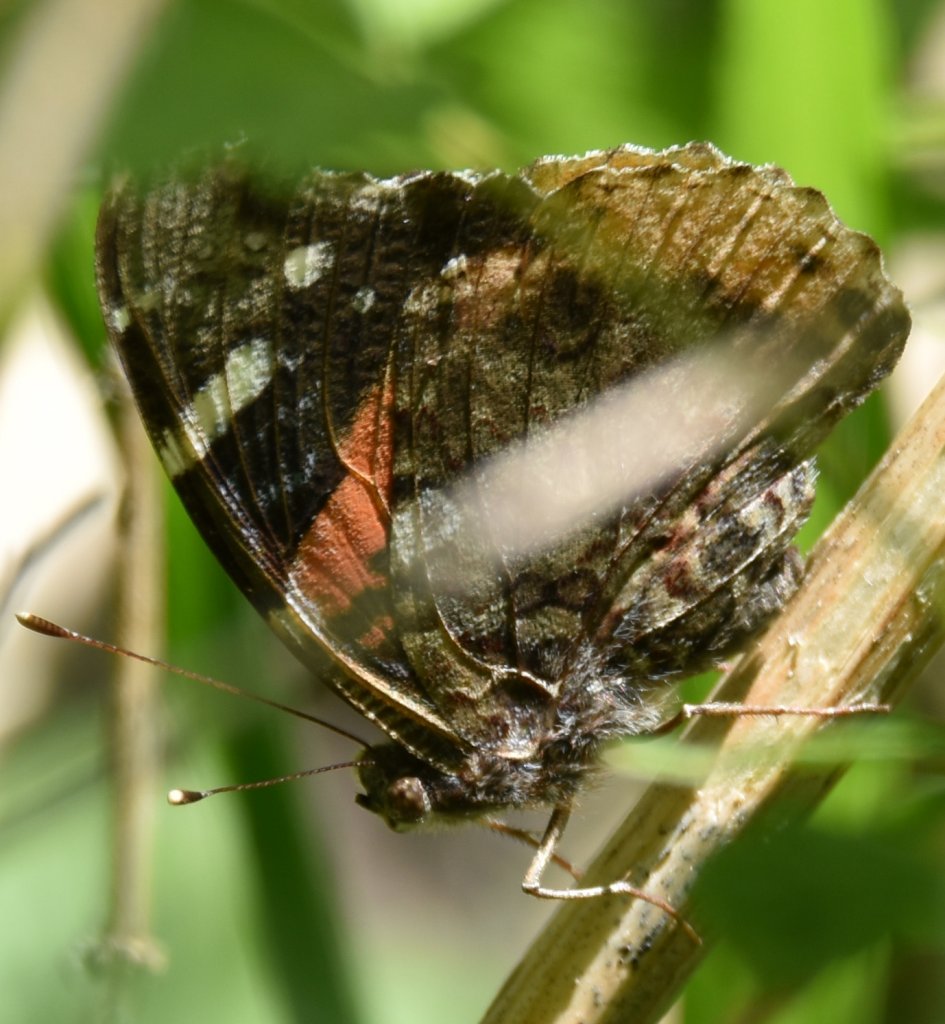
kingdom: Animalia
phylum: Arthropoda
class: Insecta
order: Lepidoptera
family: Nymphalidae
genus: Vanessa
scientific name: Vanessa atalanta
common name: Red Admiral
